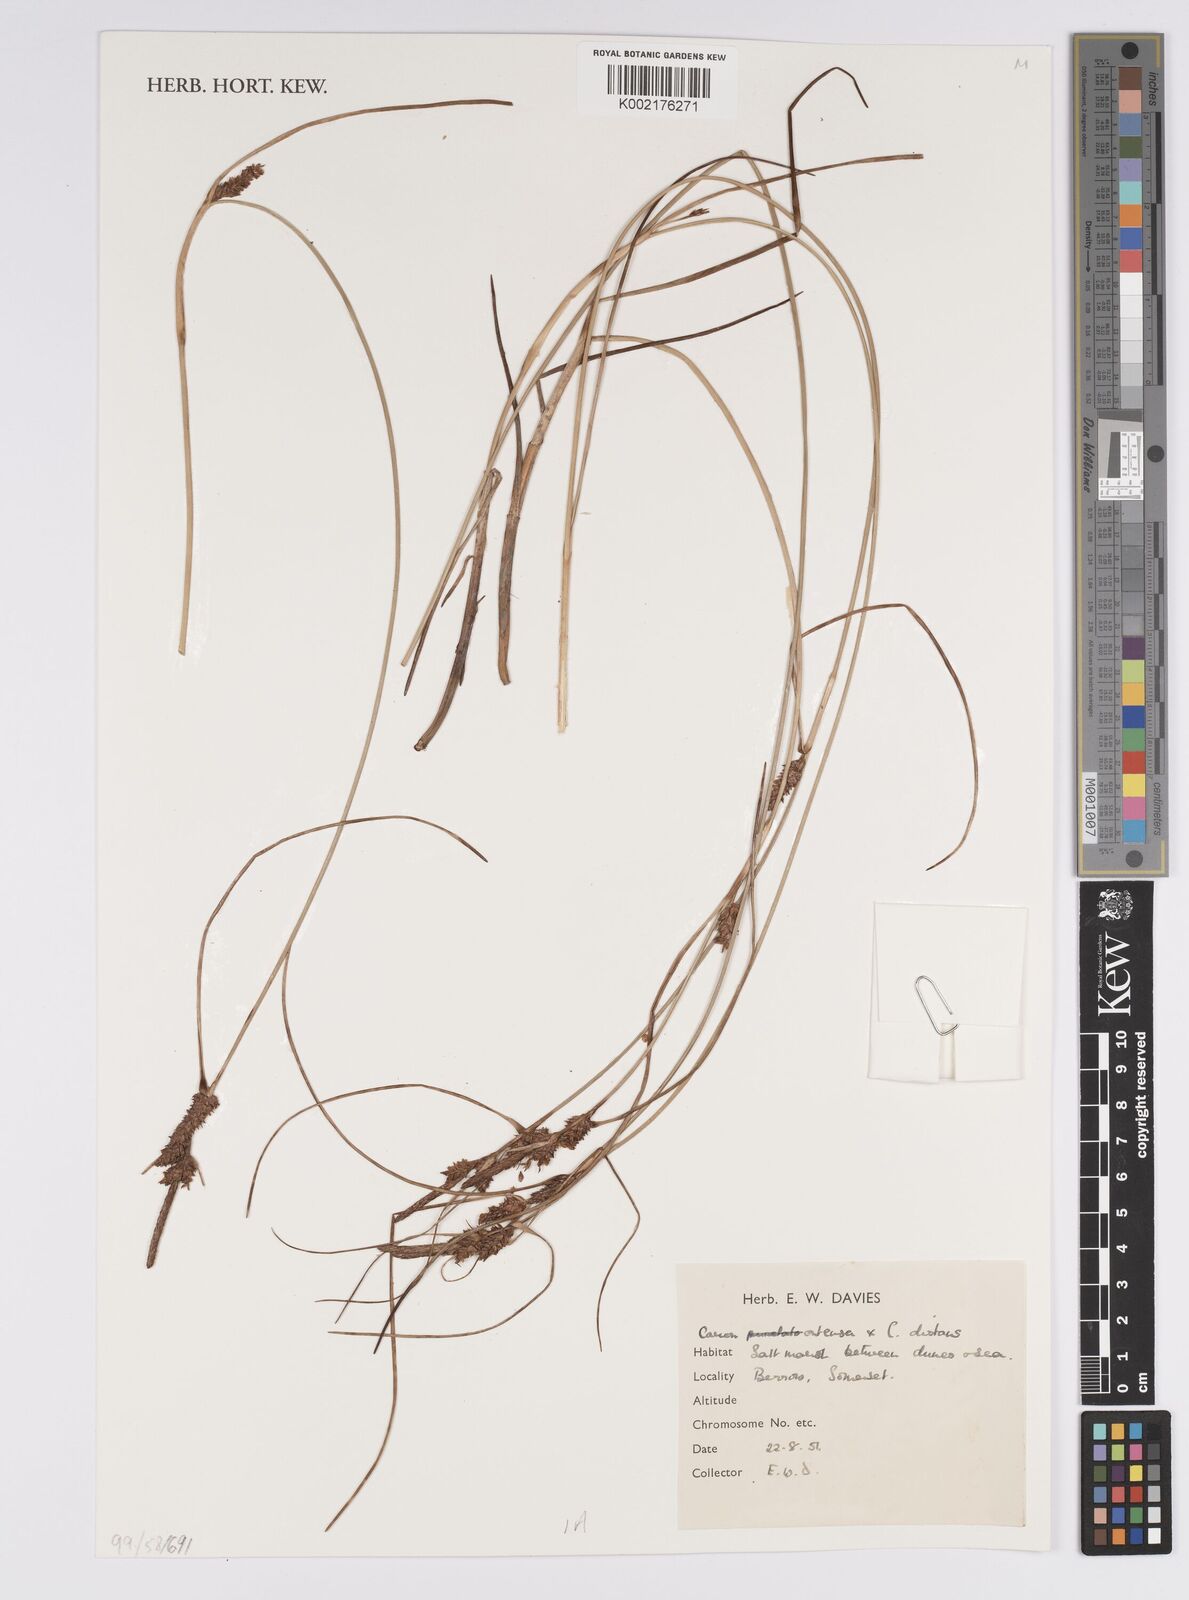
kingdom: Plantae
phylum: Tracheophyta
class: Liliopsida
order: Poales
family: Cyperaceae
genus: Carex
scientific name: Carex distans
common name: Distant sedge
